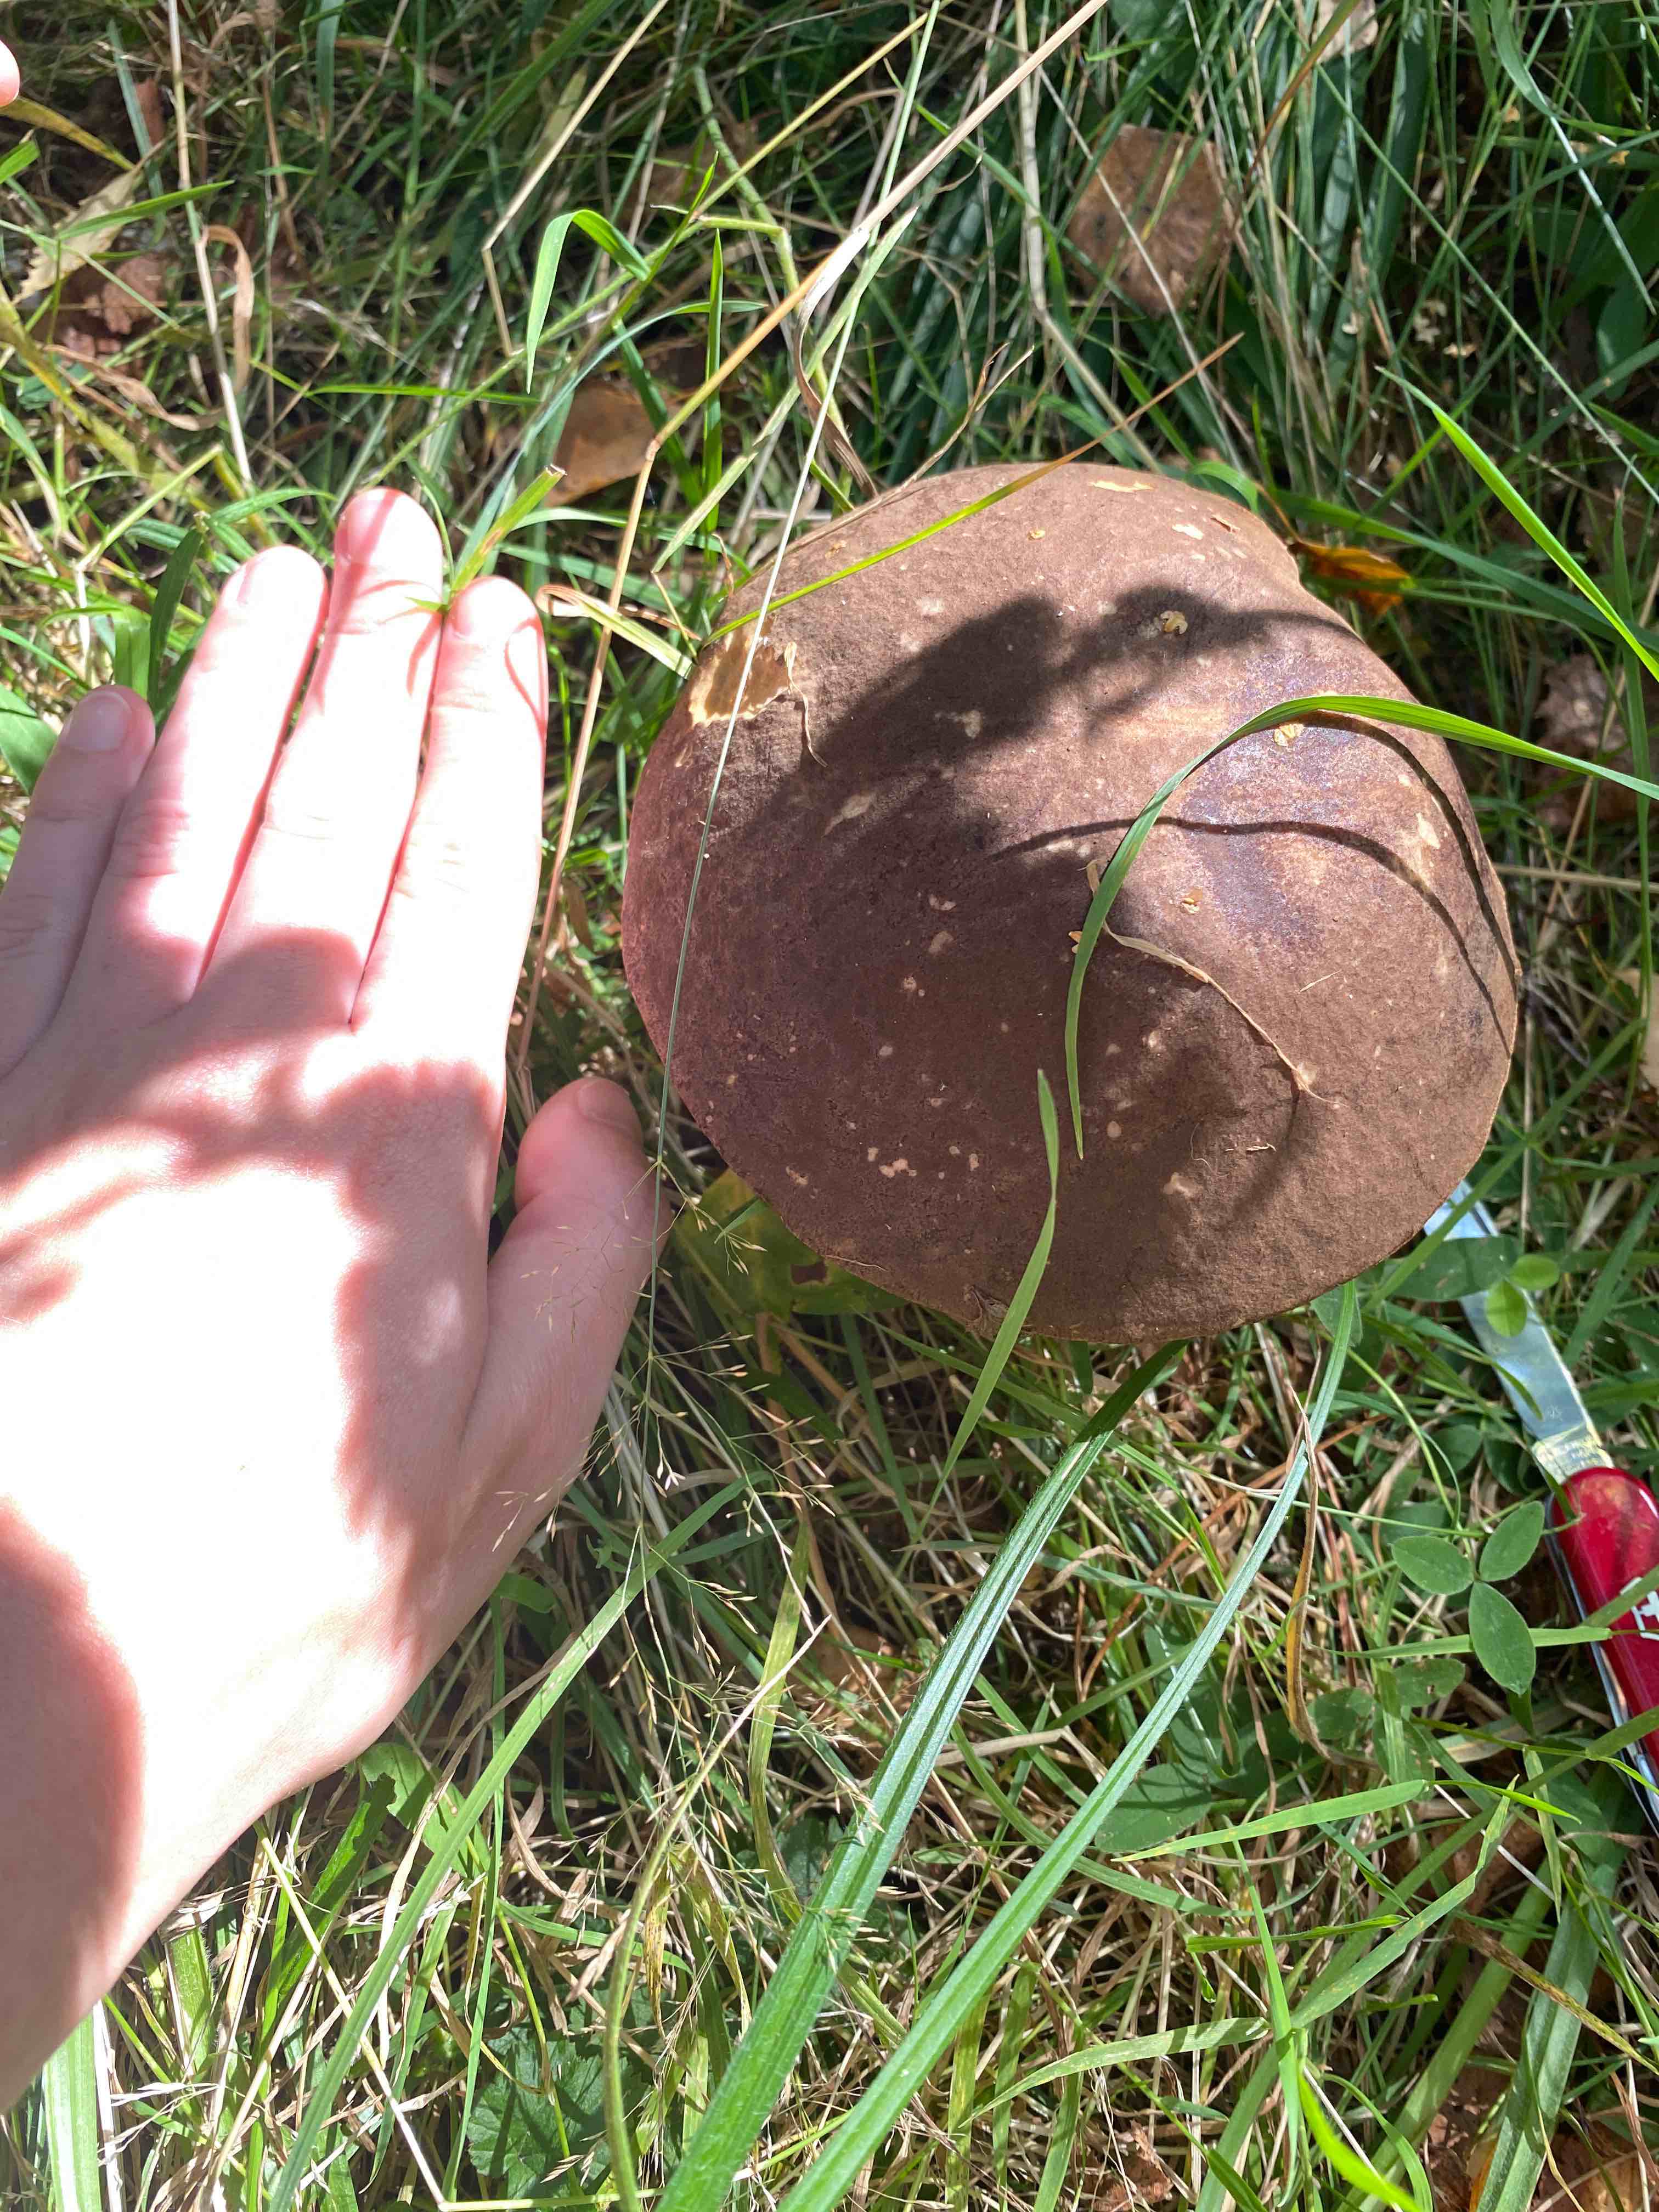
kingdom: Fungi
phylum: Basidiomycota
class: Agaricomycetes
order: Boletales
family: Boletaceae
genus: Leccinum
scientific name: Leccinum scabrum
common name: brun skælrørhat
